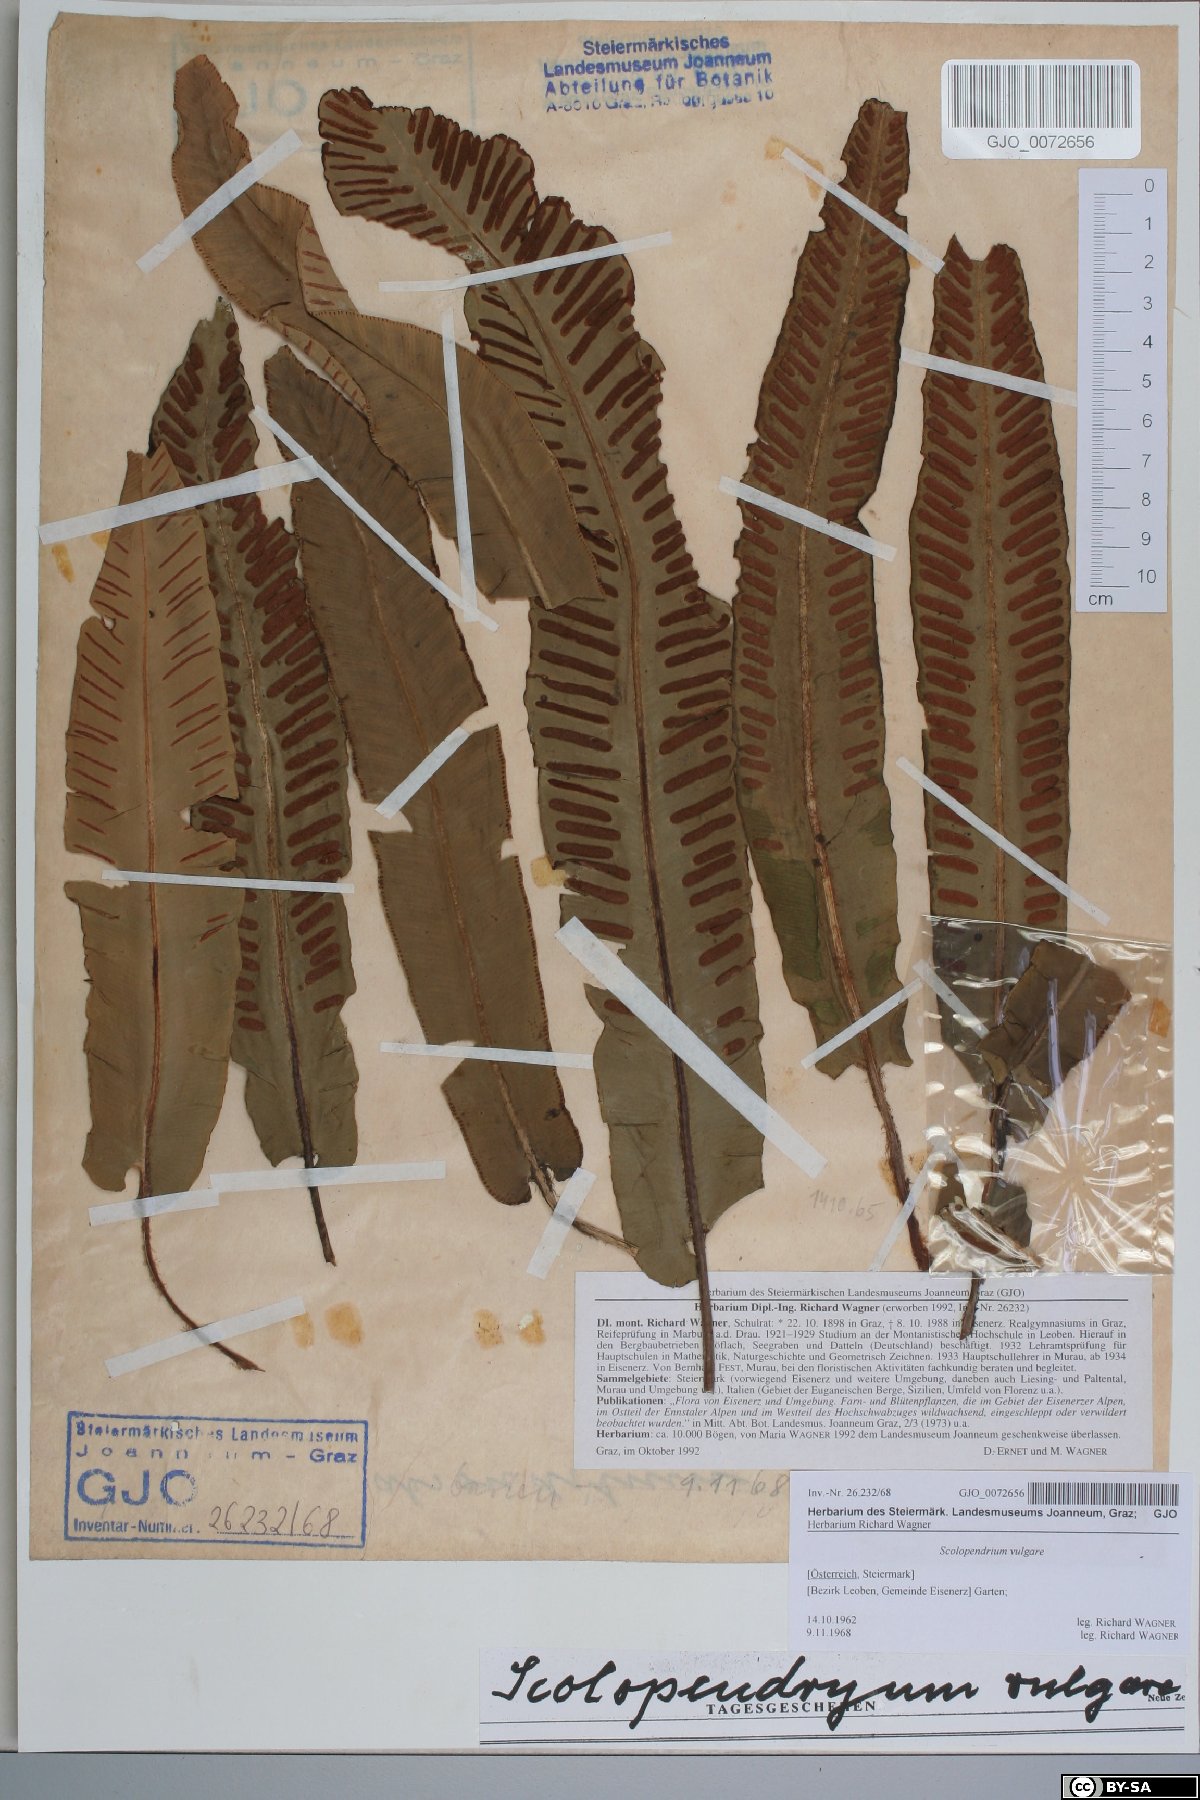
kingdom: Plantae
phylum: Tracheophyta
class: Polypodiopsida
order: Polypodiales
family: Aspleniaceae
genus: Asplenium
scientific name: Asplenium scolopendrium
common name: Hart's-tongue fern
